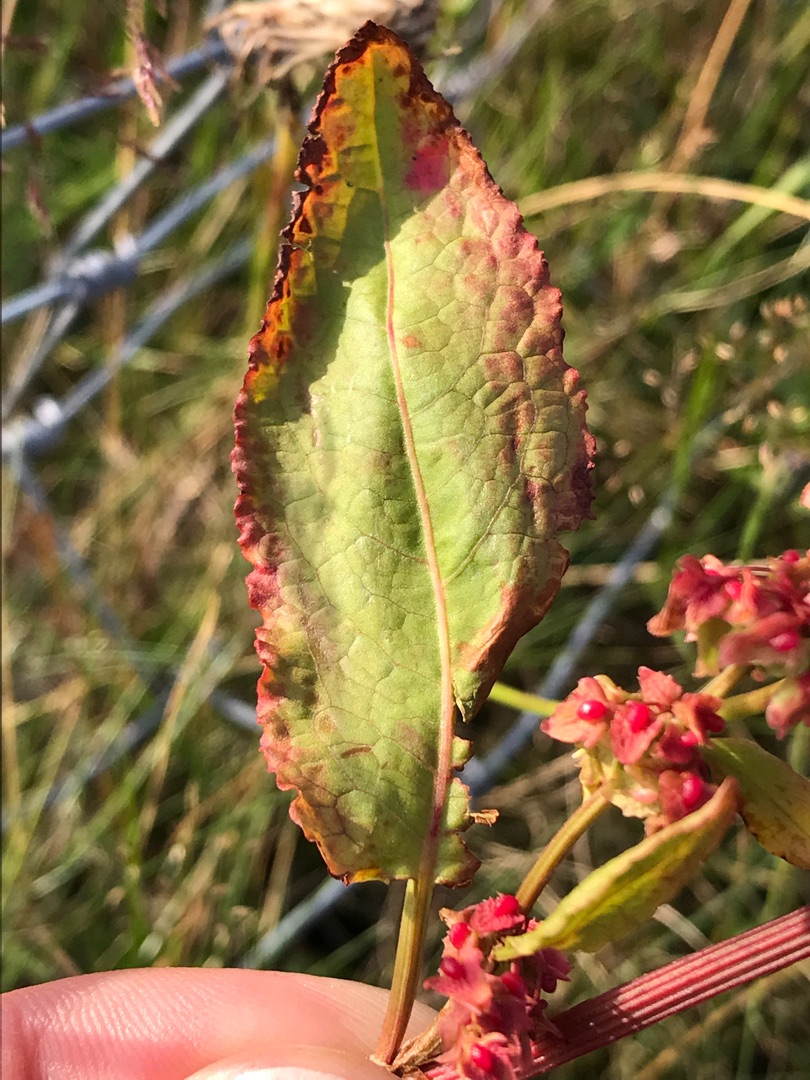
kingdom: Plantae
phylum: Tracheophyta
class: Magnoliopsida
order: Caryophyllales
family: Polygonaceae
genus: Rumex
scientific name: Rumex obtusifolius
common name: Butbladet skræppe
